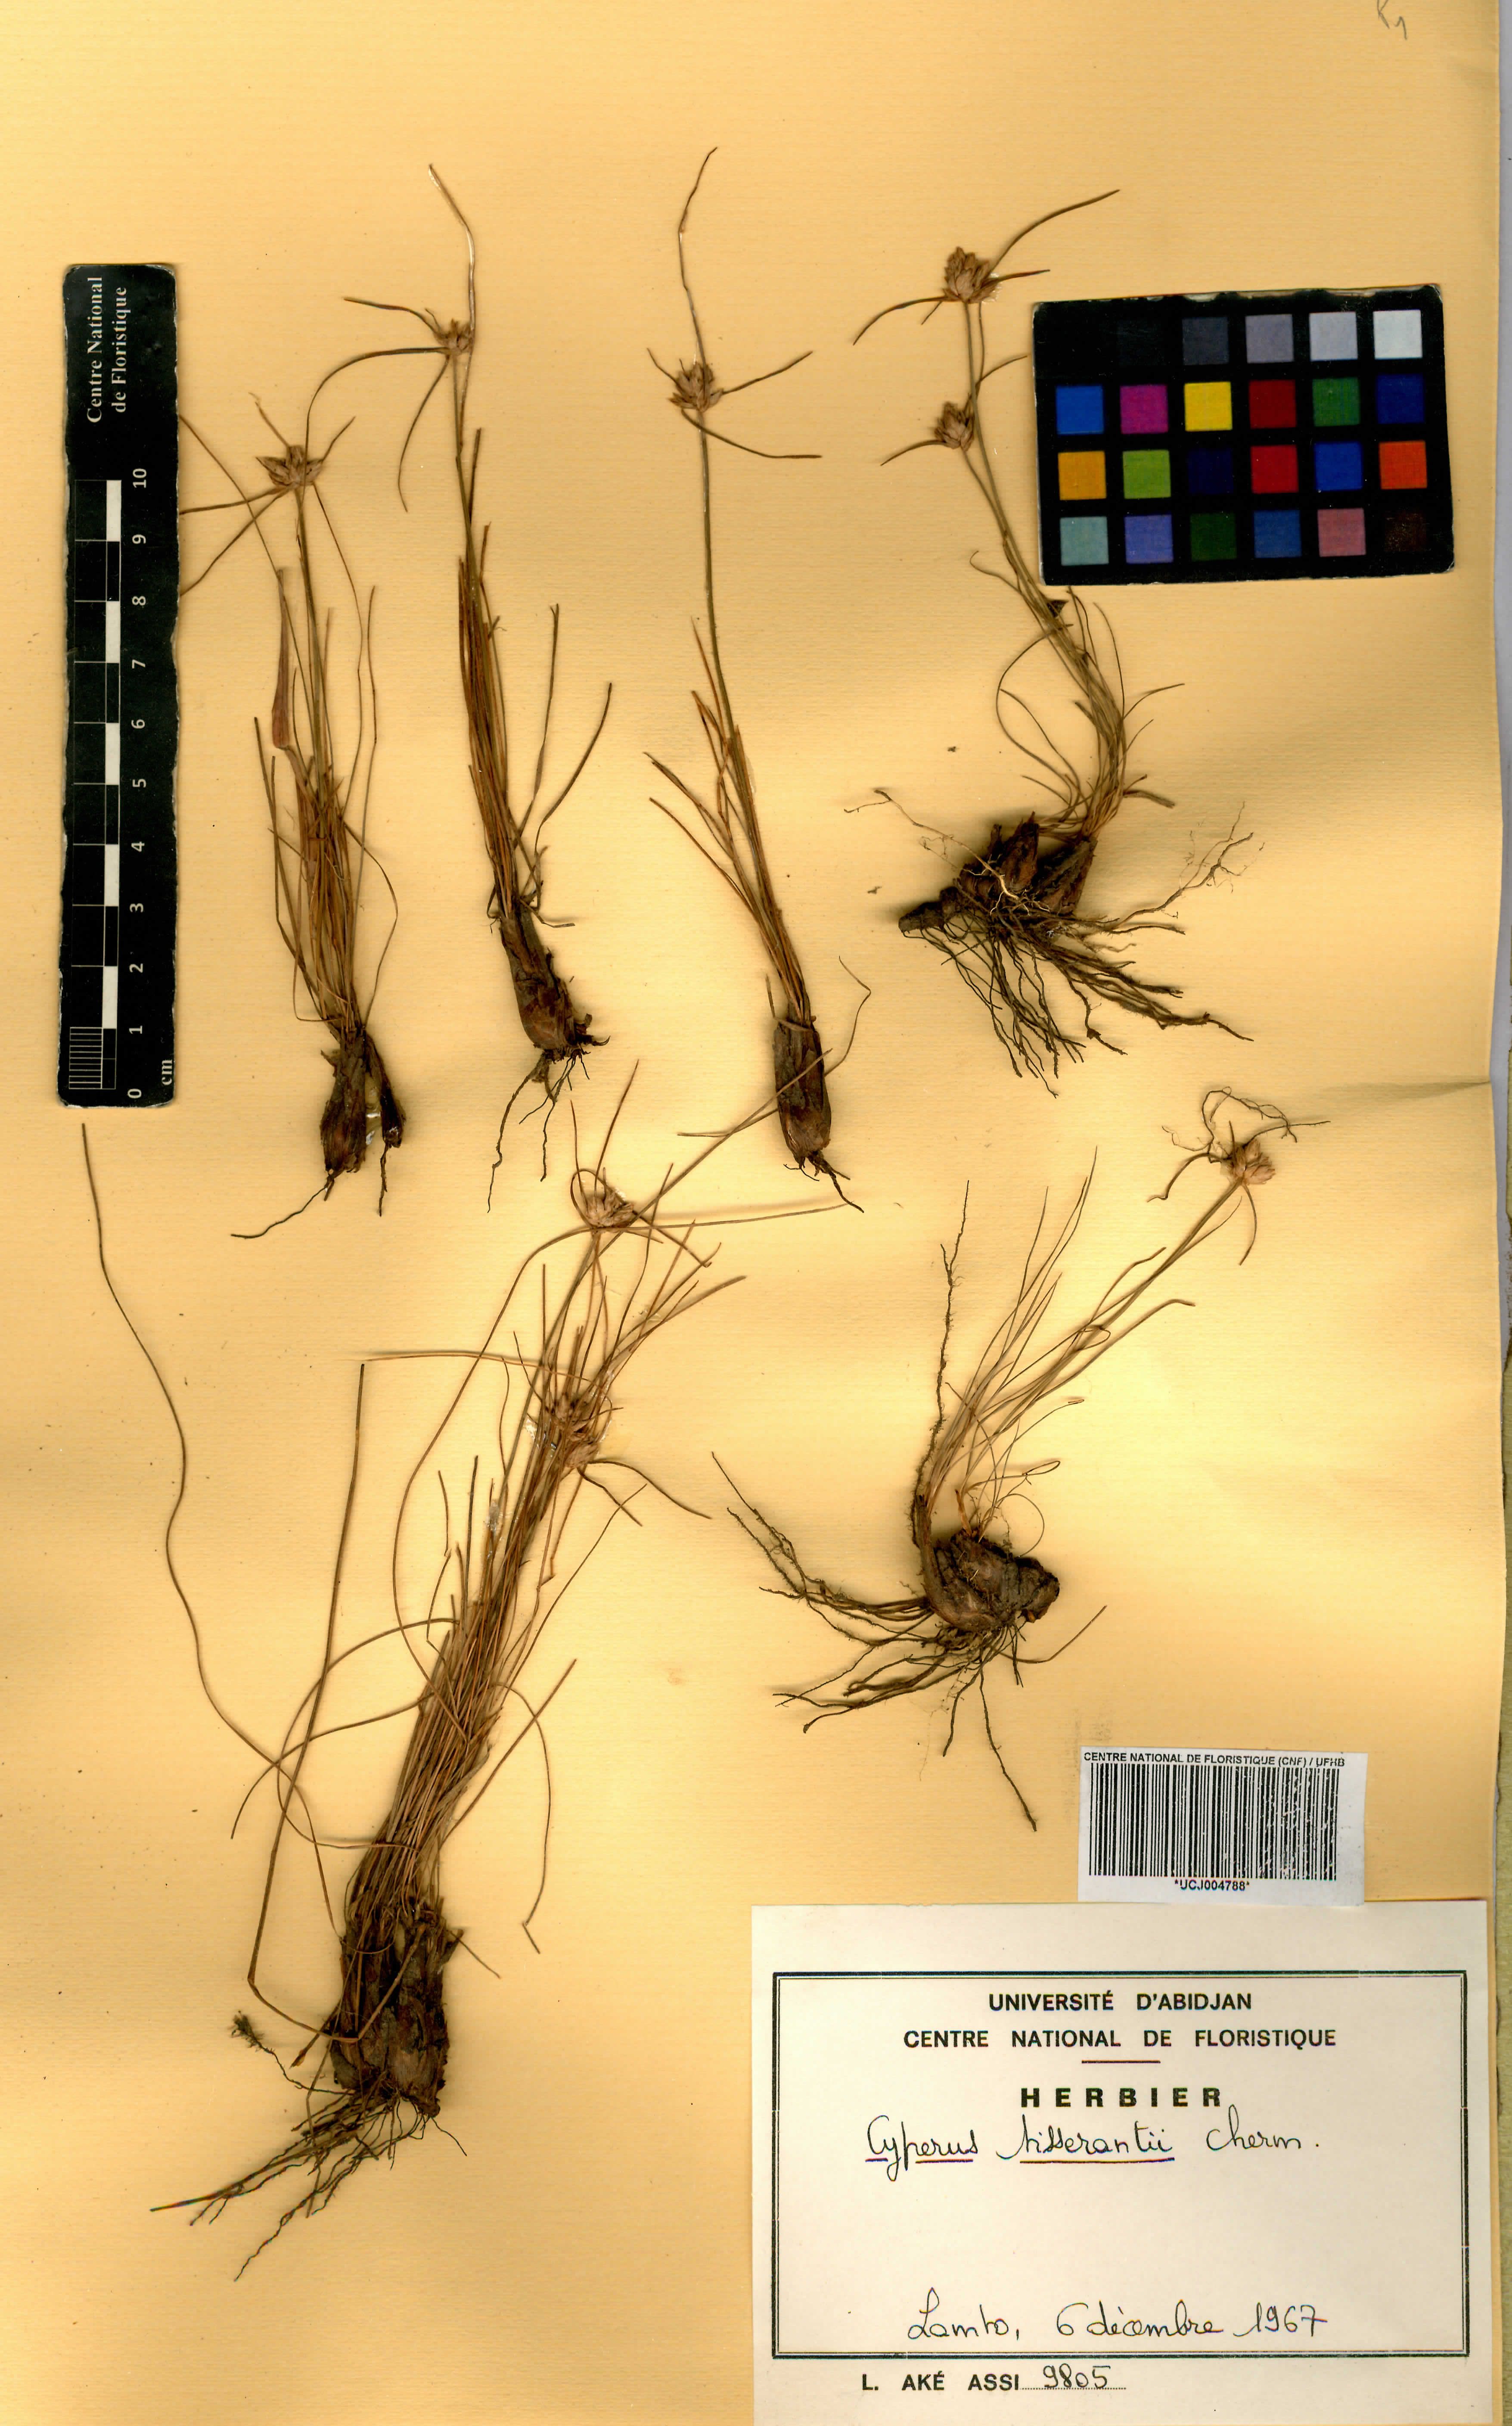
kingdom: Plantae
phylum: Tracheophyta
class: Liliopsida
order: Poales
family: Cyperaceae
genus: Cyperus
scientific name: Cyperus niveus
